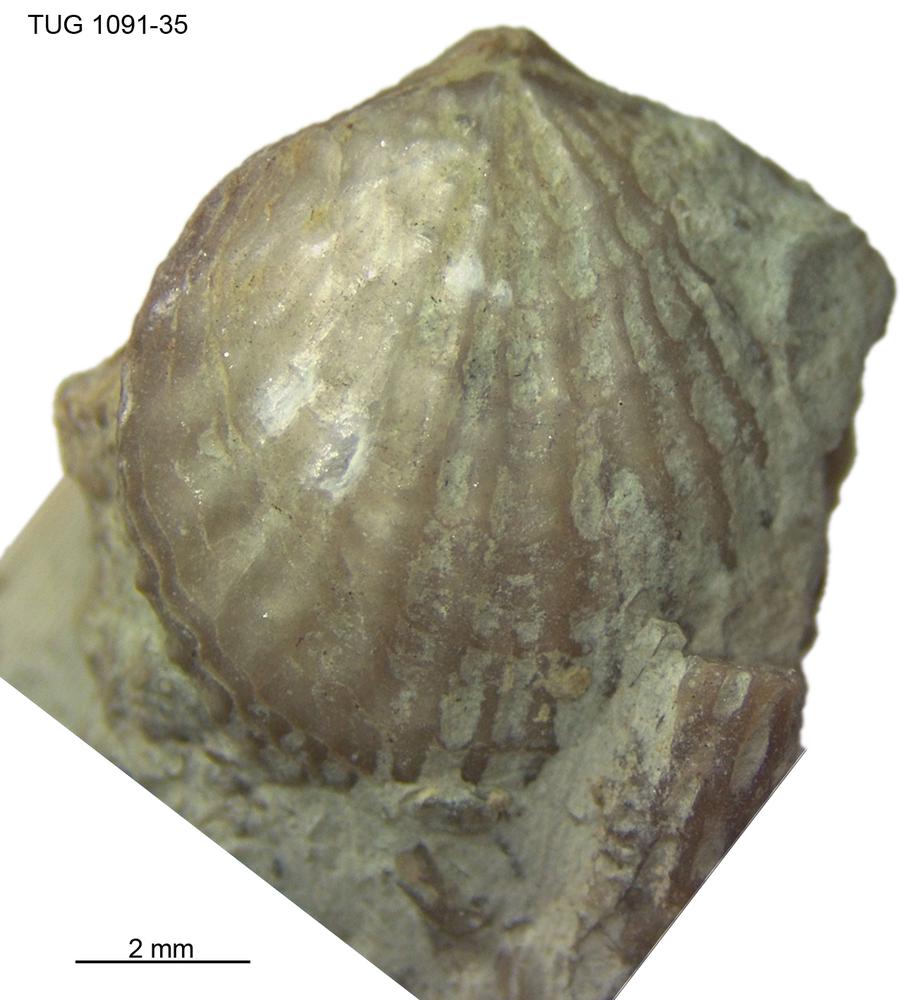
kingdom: Animalia
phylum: Brachiopoda
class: Rhynchonellata
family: Atrypidae
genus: Atrypa
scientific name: Atrypa
